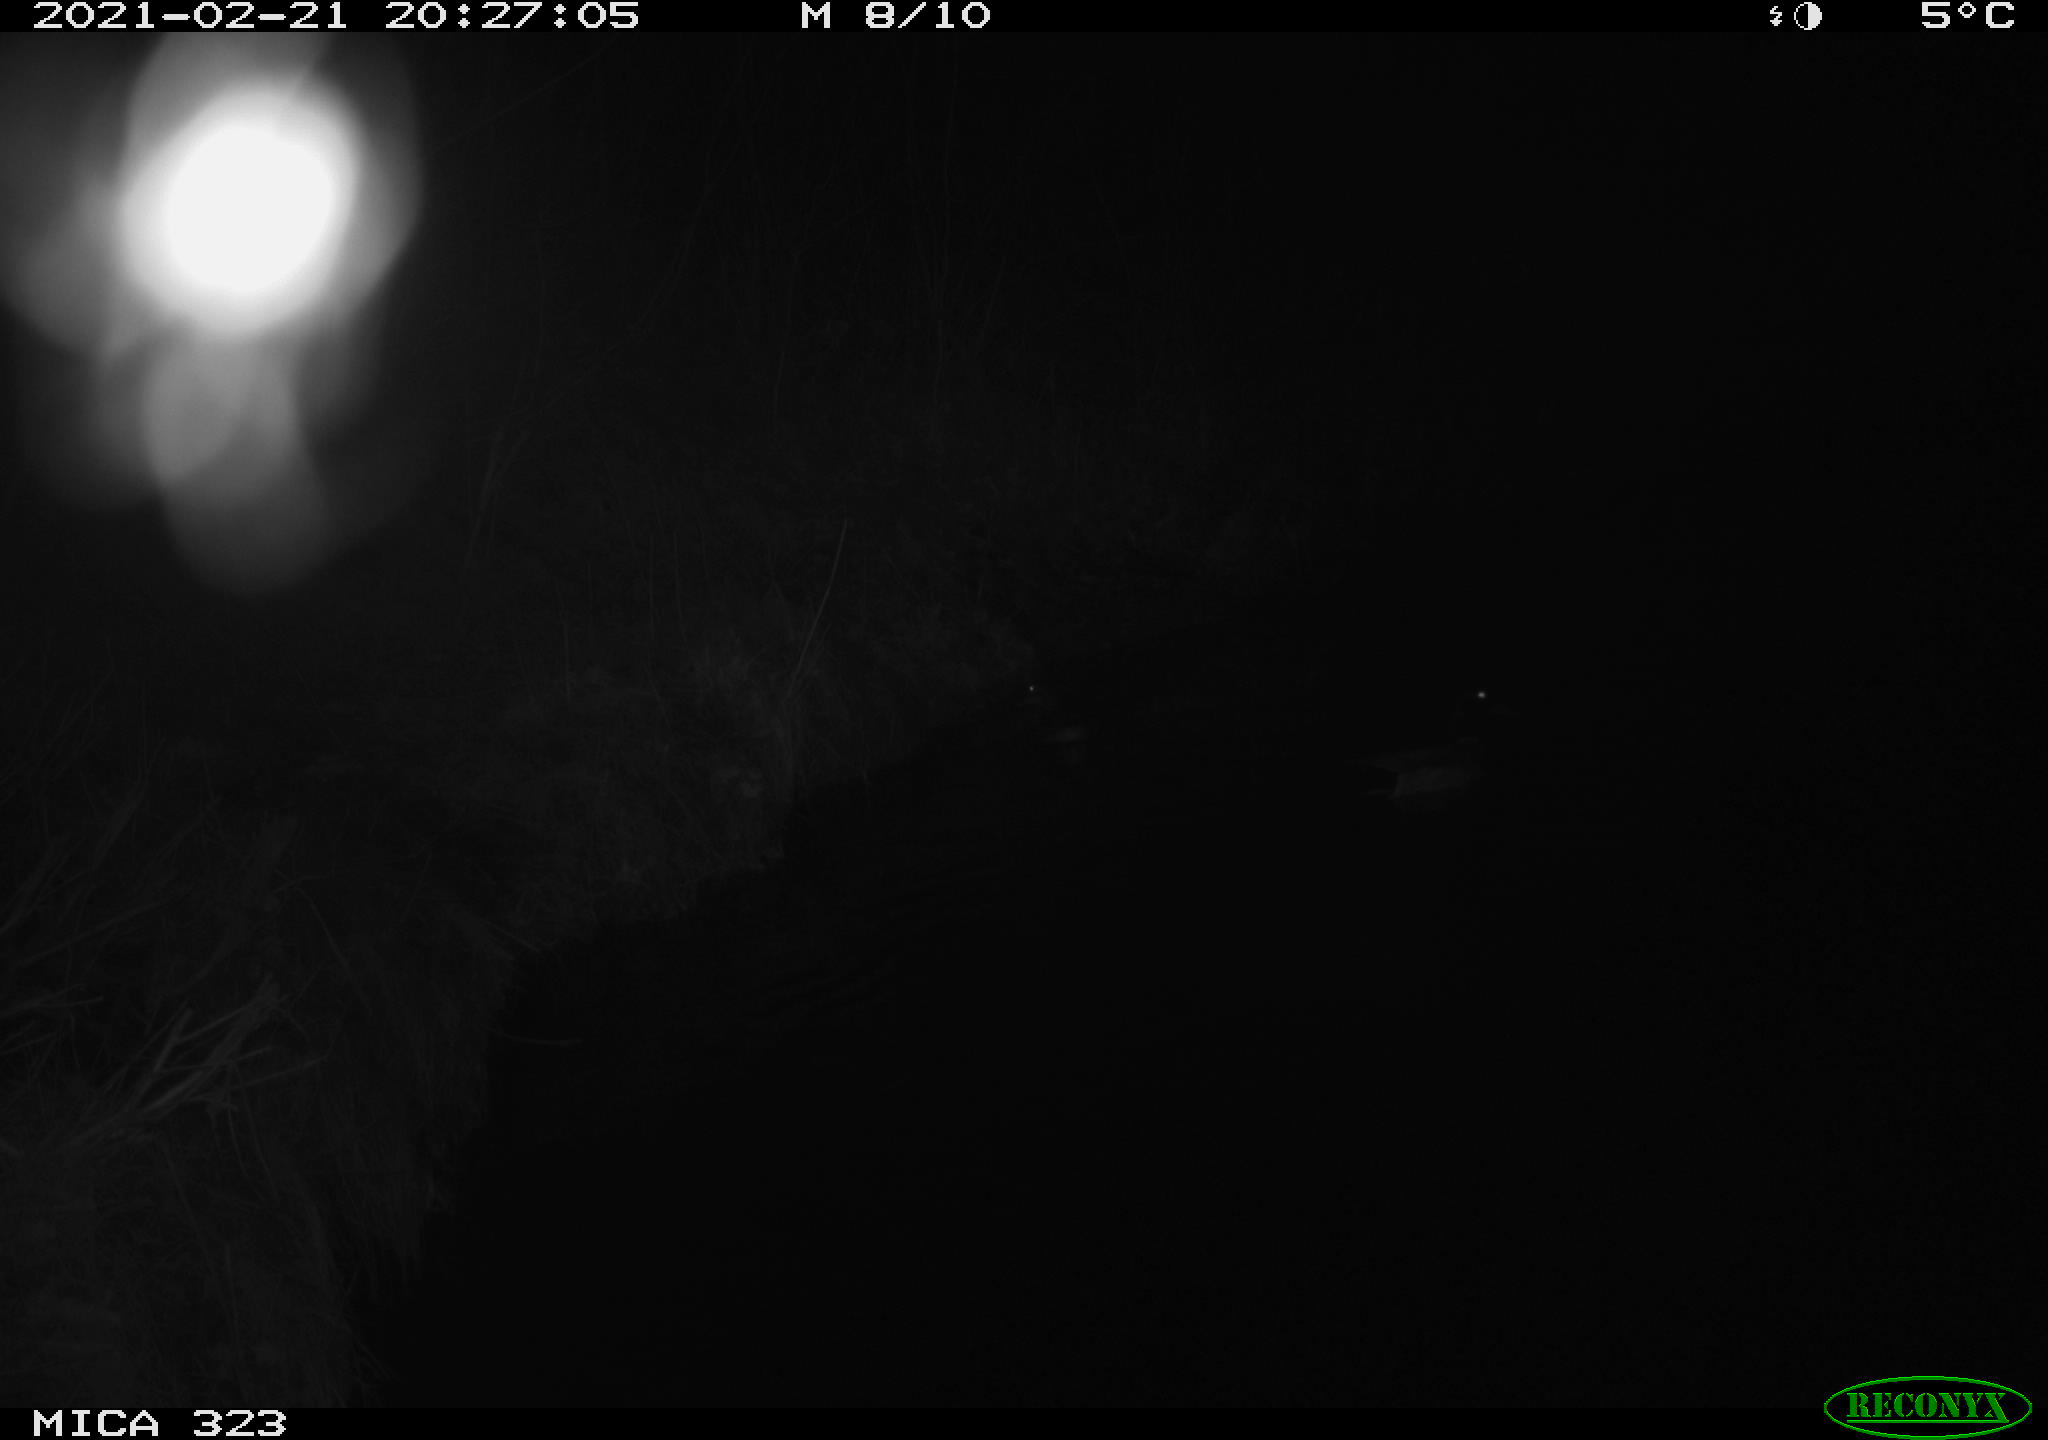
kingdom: Animalia
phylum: Chordata
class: Aves
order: Anseriformes
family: Anatidae
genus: Anas
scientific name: Anas platyrhynchos
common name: Mallard
